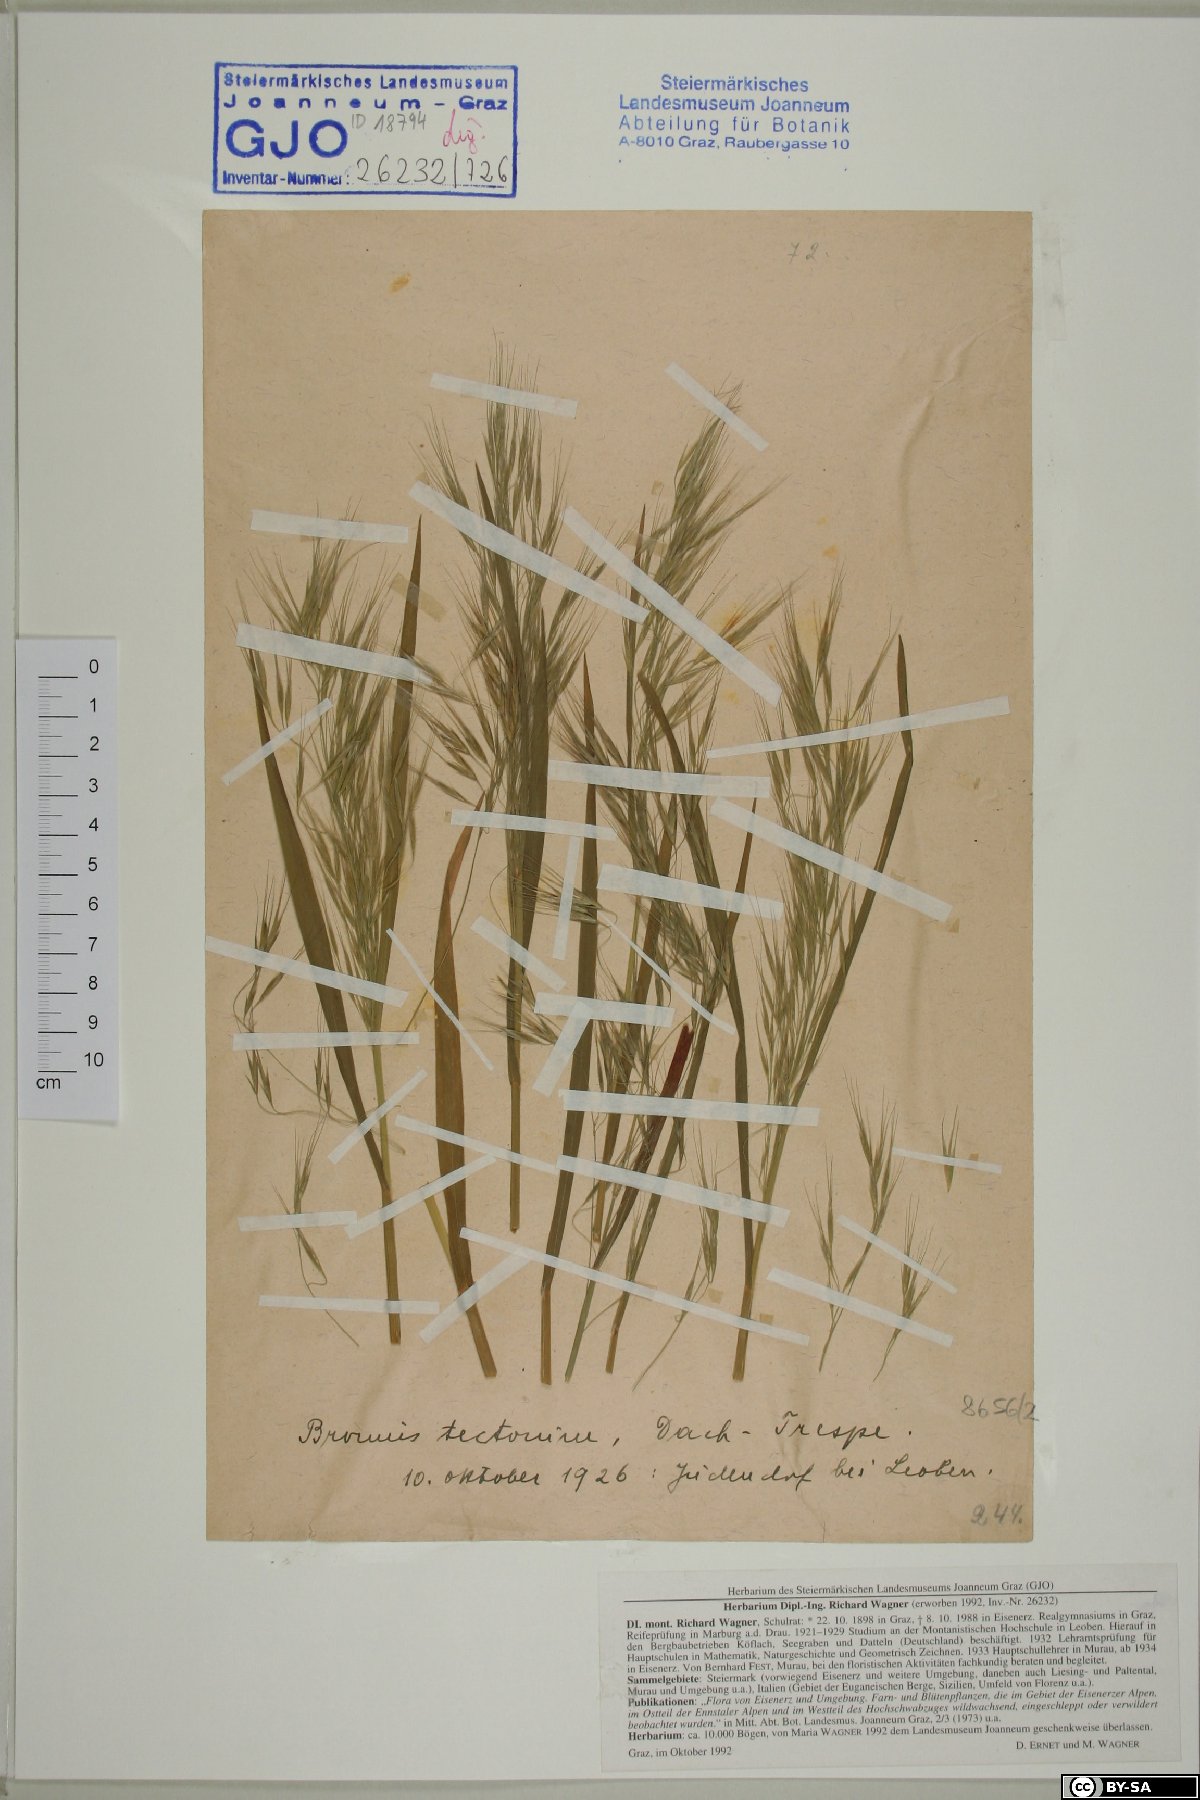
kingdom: Plantae
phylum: Tracheophyta
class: Liliopsida
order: Poales
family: Poaceae
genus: Bromus
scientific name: Bromus tectorum
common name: Cheatgrass
